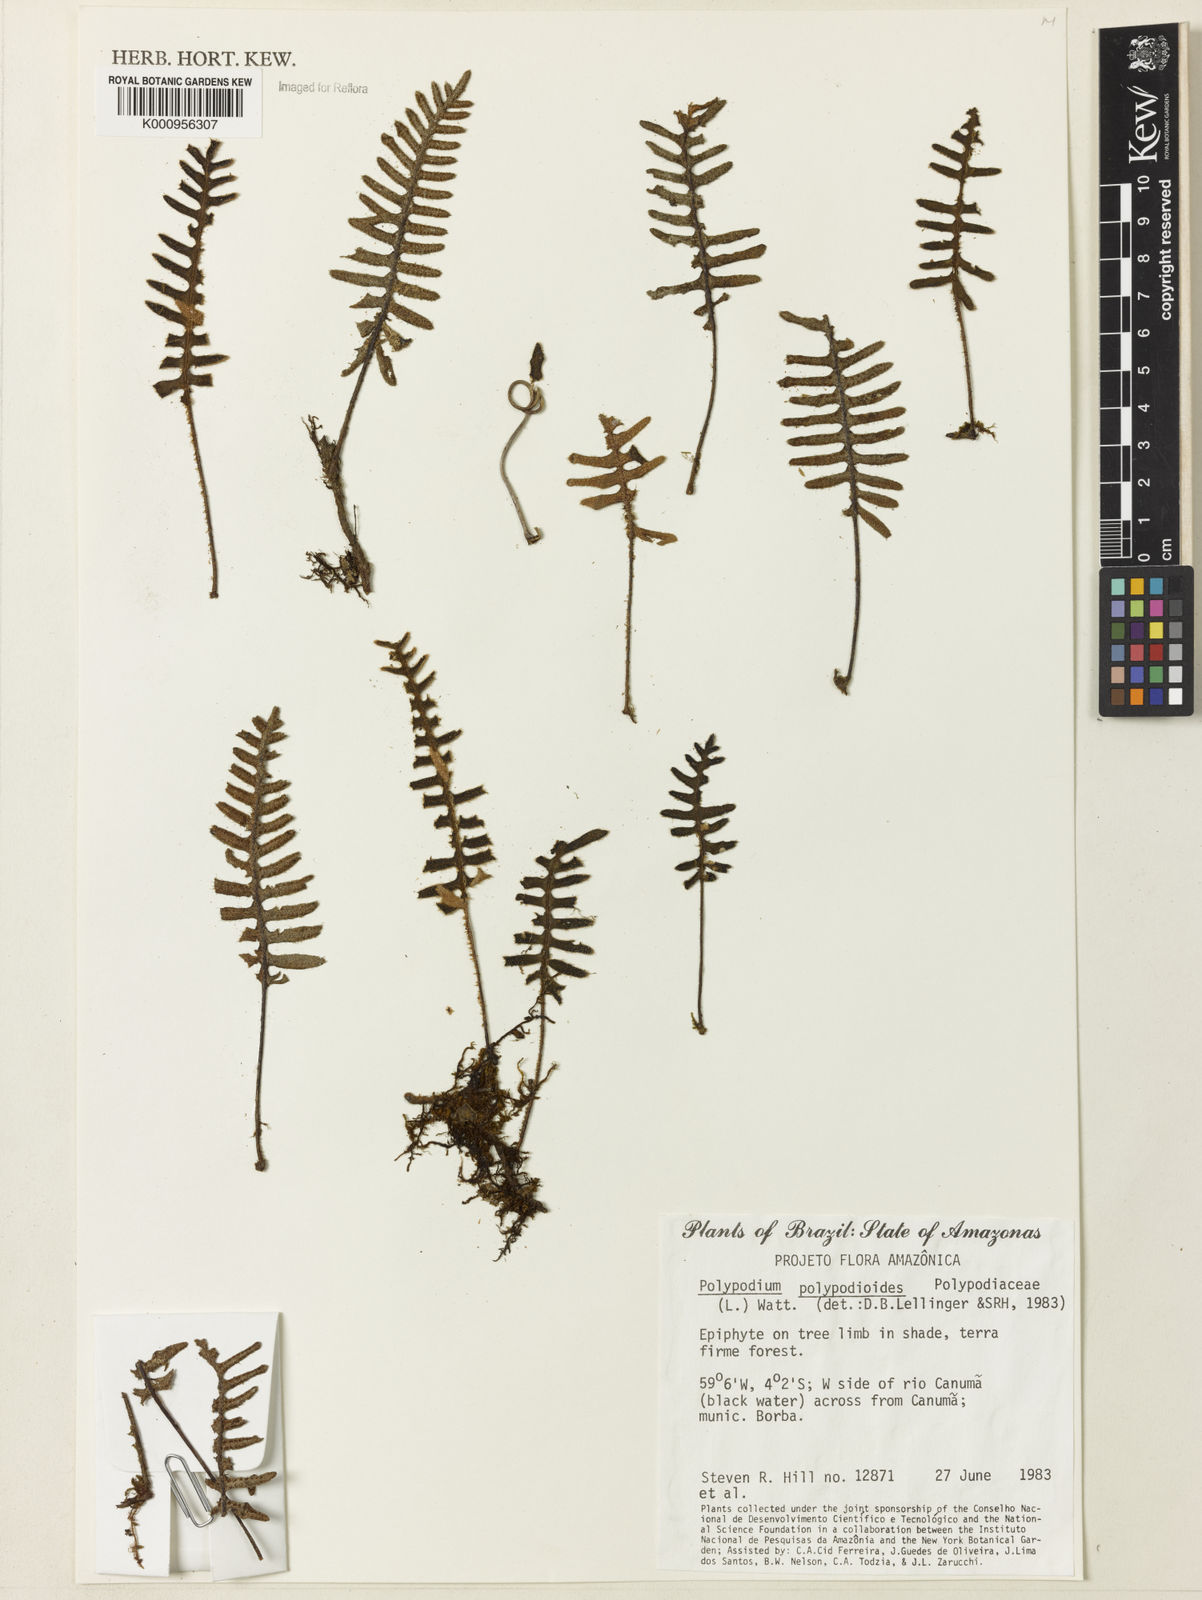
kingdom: Plantae
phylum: Tracheophyta
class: Polypodiopsida
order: Polypodiales
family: Polypodiaceae
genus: Pleopeltis
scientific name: Pleopeltis polypodioides
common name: Resurrection fern
